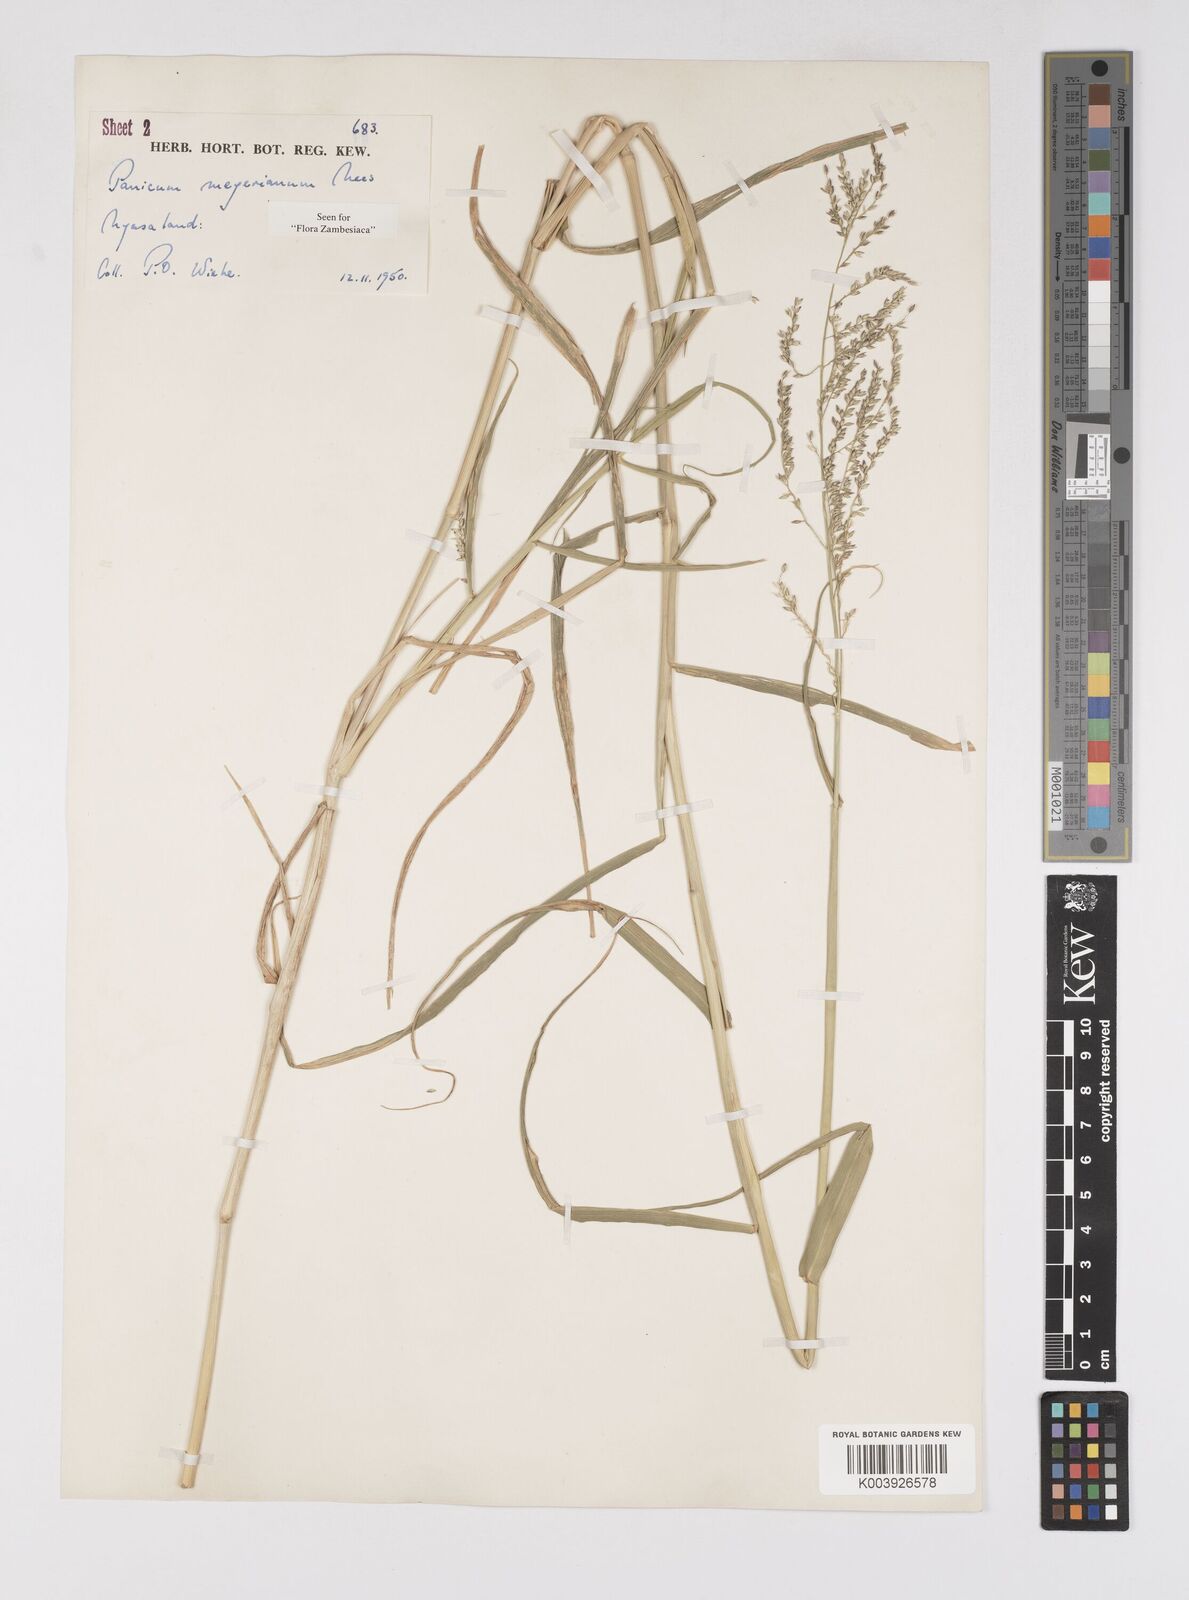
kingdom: Plantae
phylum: Tracheophyta
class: Liliopsida
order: Poales
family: Poaceae
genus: Eriochloa
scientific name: Eriochloa meyeriana
